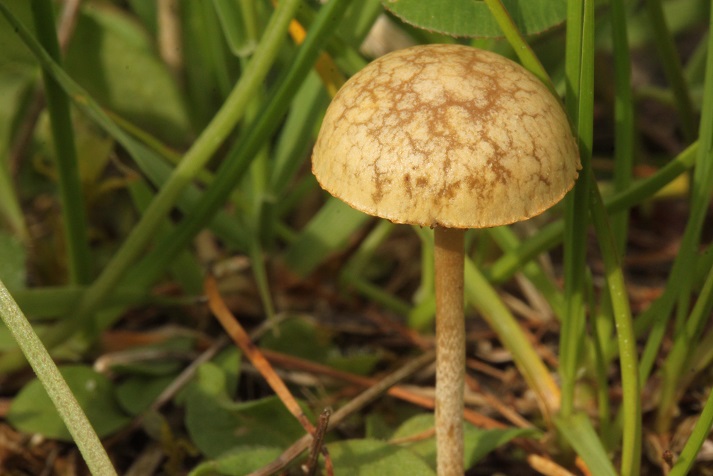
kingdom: Fungi
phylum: Basidiomycota
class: Agaricomycetes
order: Agaricales
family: Strophariaceae
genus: Agrocybe
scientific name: Agrocybe pediades
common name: almindelig agerhat
